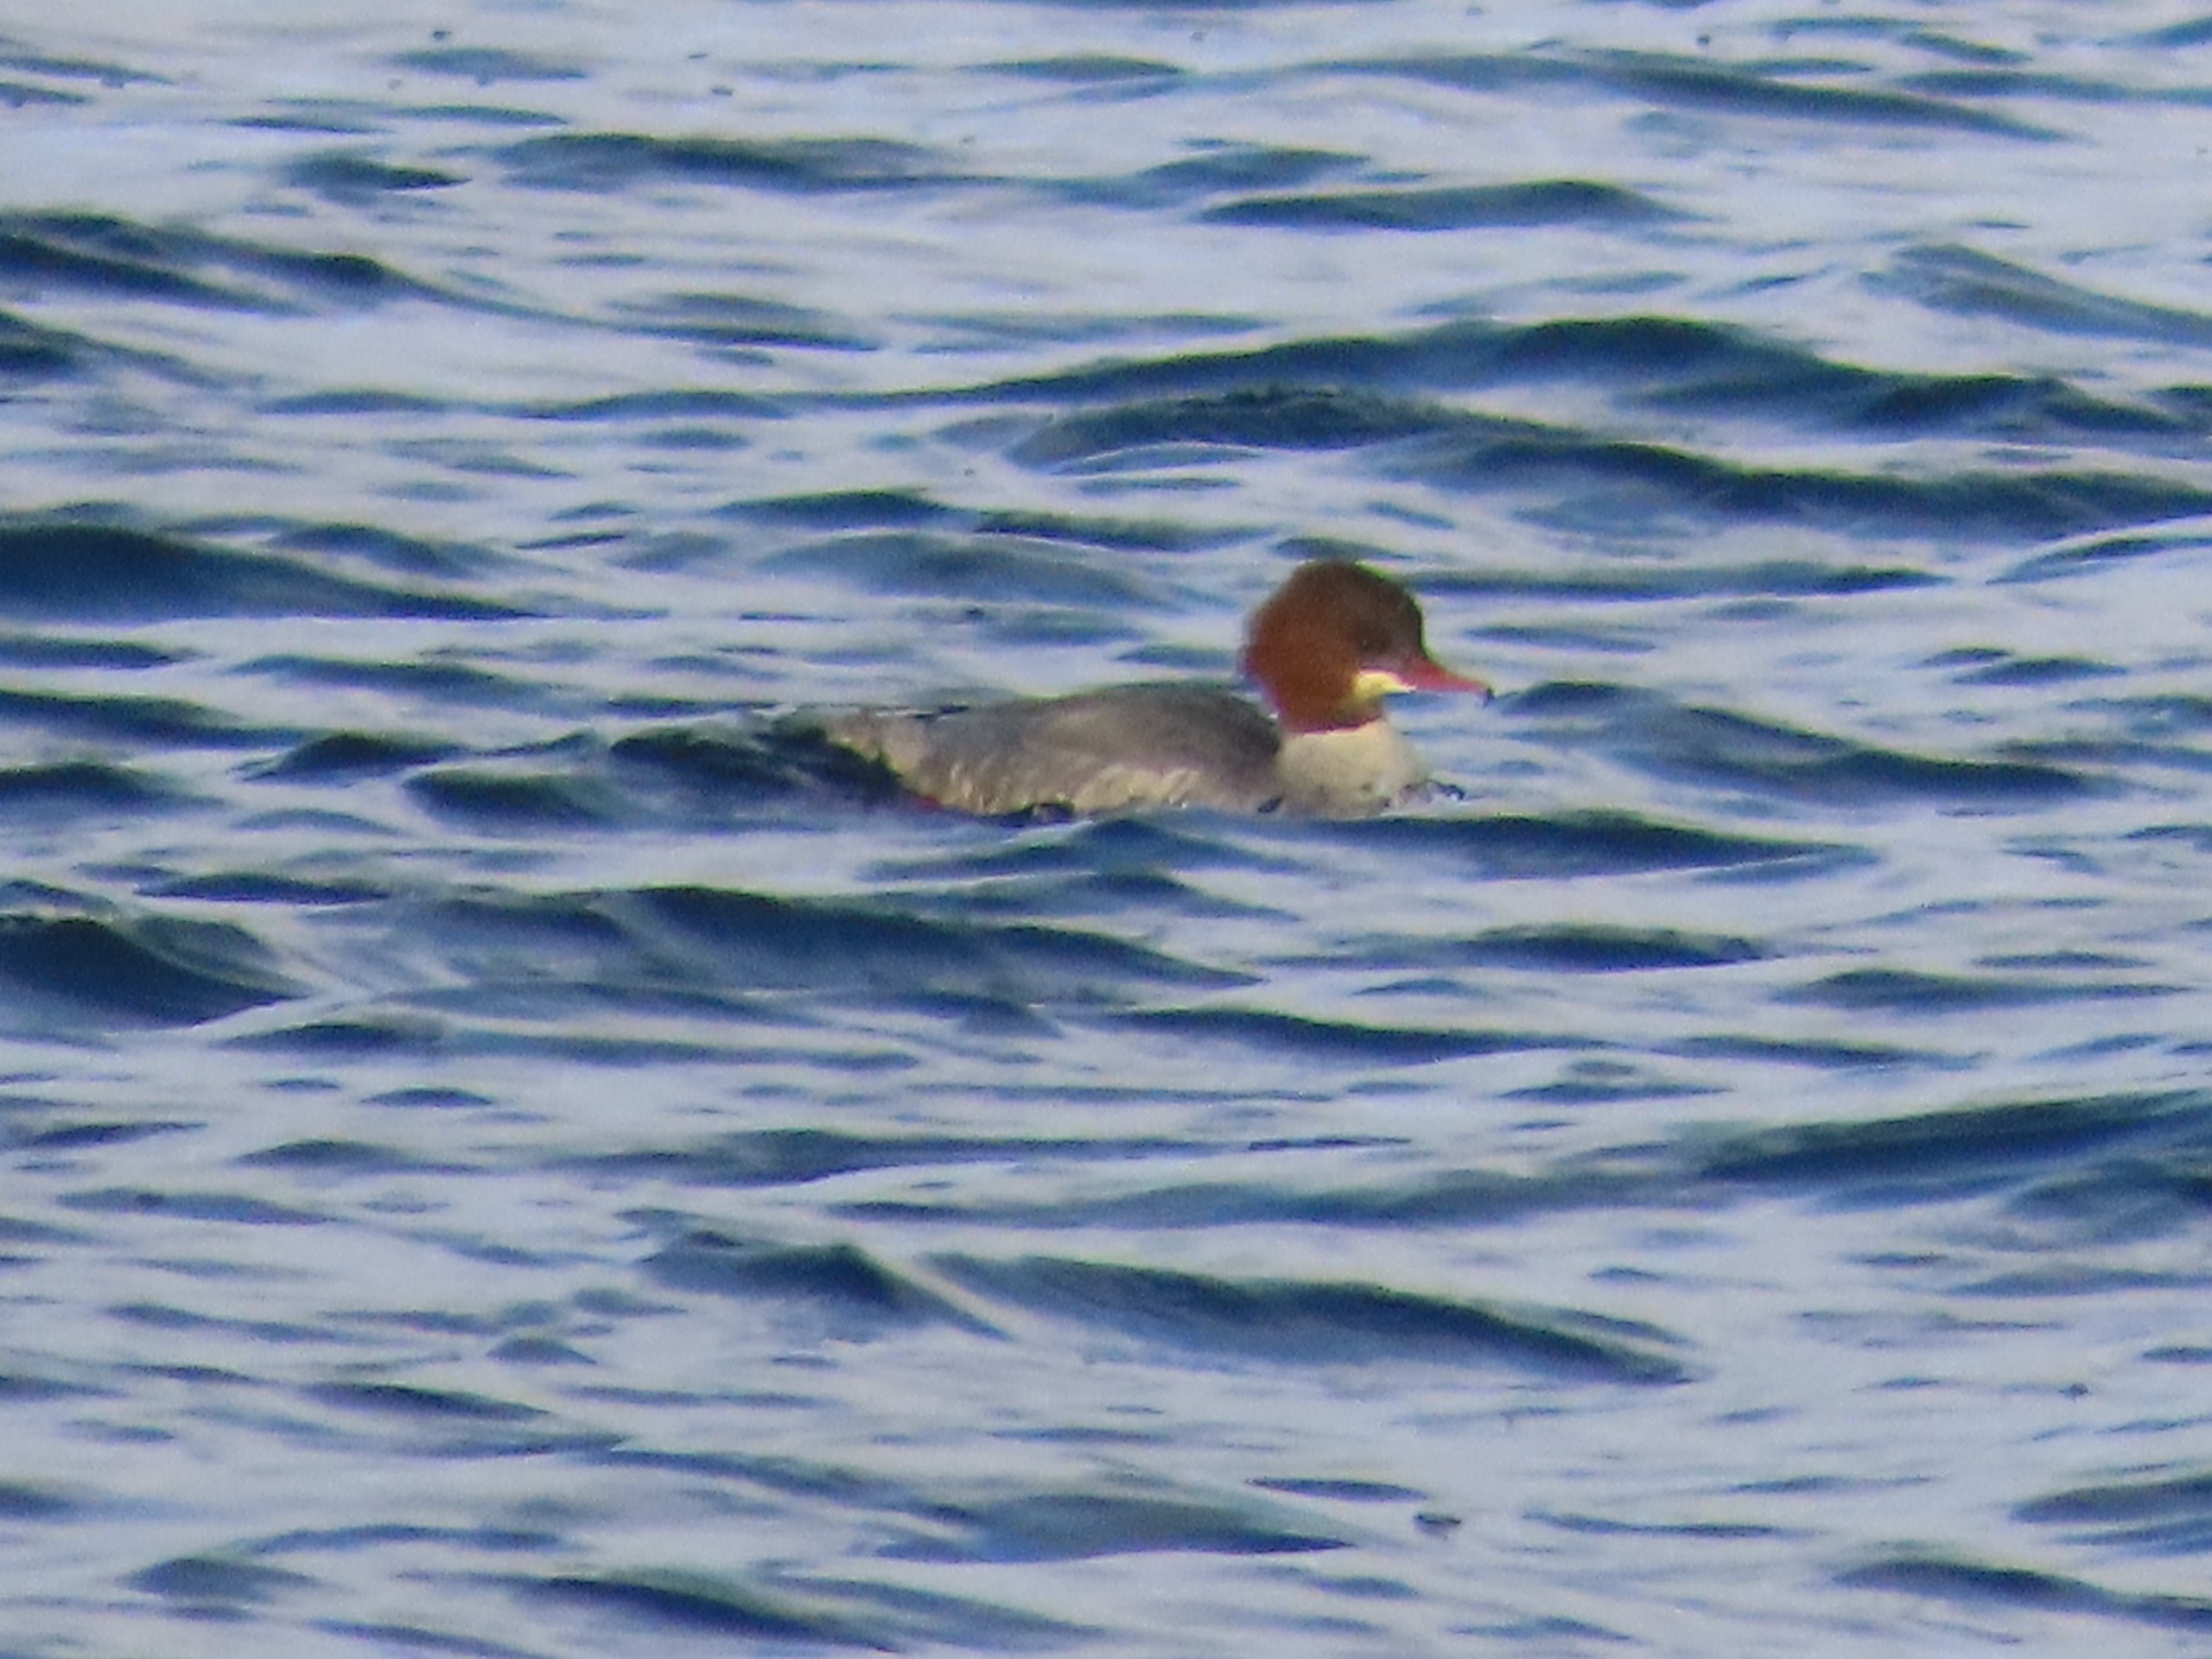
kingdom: Animalia
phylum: Chordata
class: Aves
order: Anseriformes
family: Anatidae
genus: Mergus
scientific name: Mergus merganser
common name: Stor skallesluger
